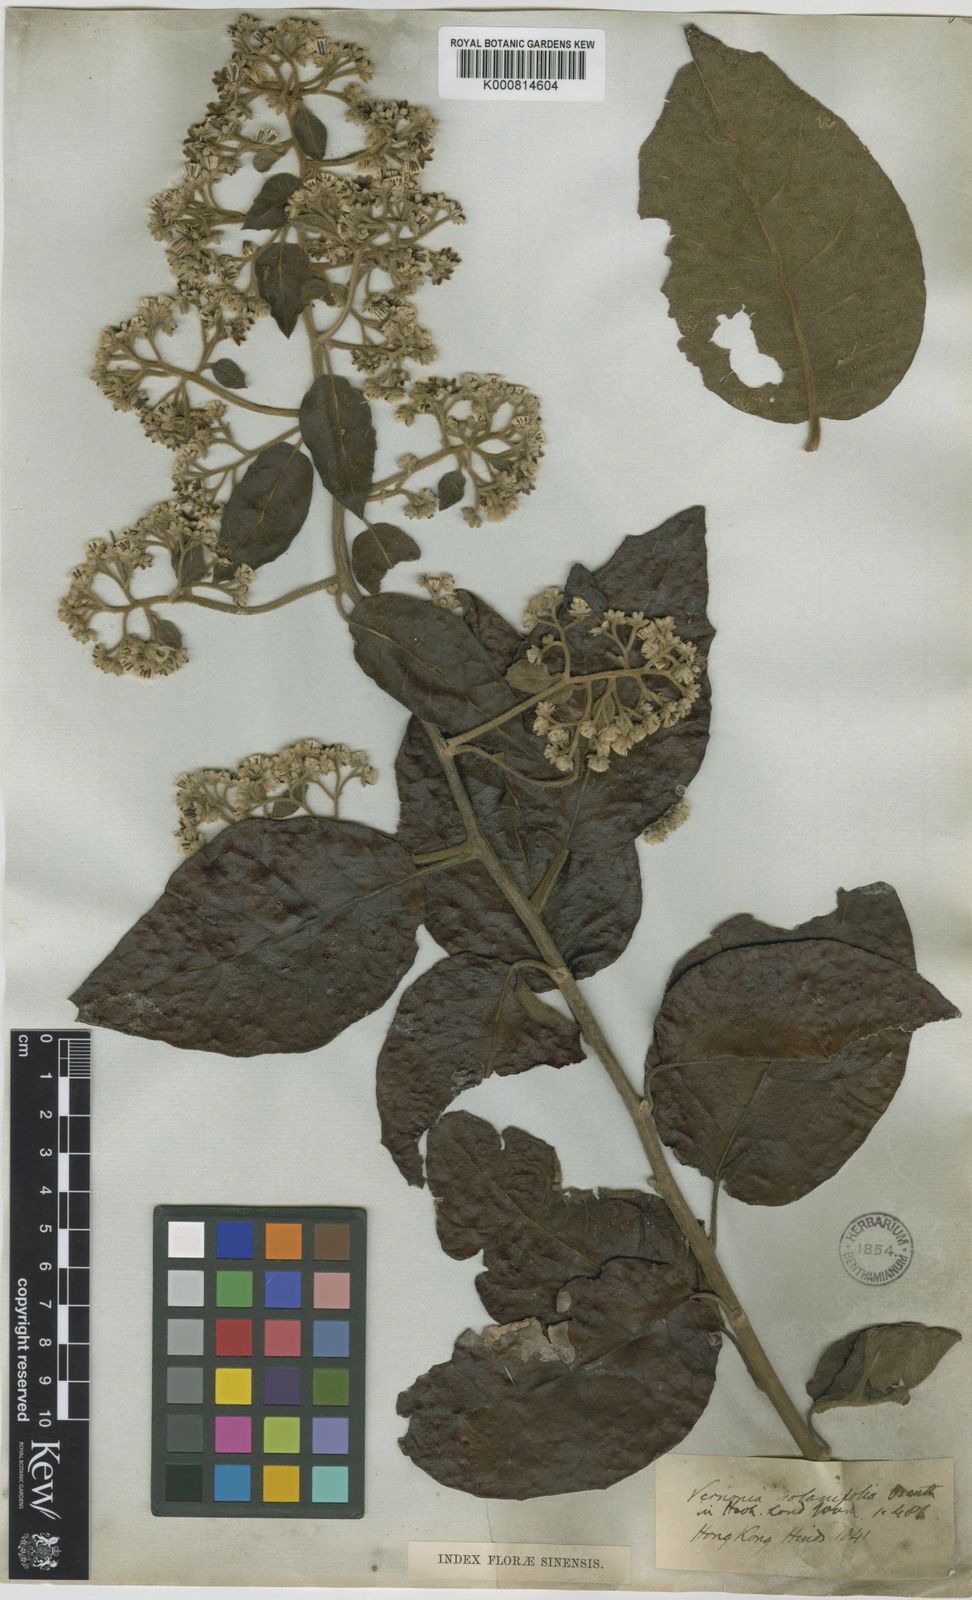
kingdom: Plantae
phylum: Tracheophyta
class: Magnoliopsida
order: Asterales
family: Asteraceae
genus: Strobocalyx
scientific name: Strobocalyx solanifolia
